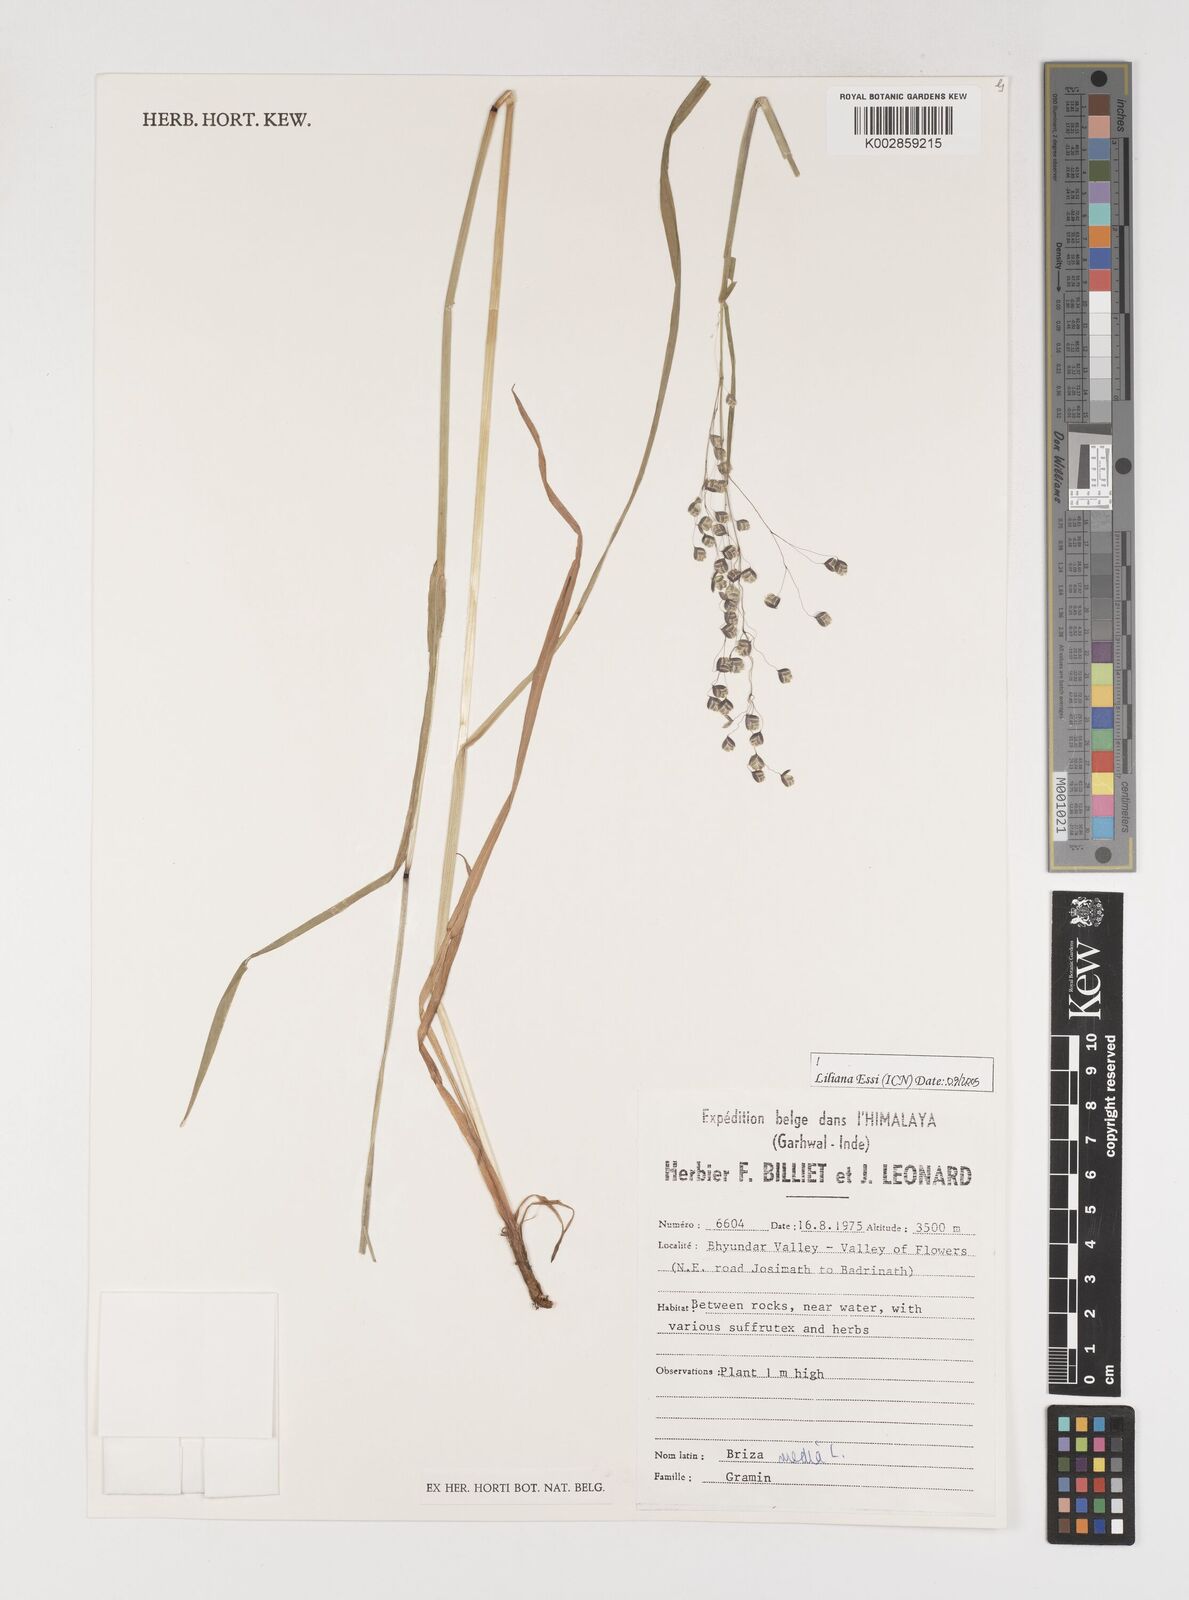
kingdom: Plantae
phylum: Tracheophyta
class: Liliopsida
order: Poales
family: Poaceae
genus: Briza
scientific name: Briza media
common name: Quaking grass
